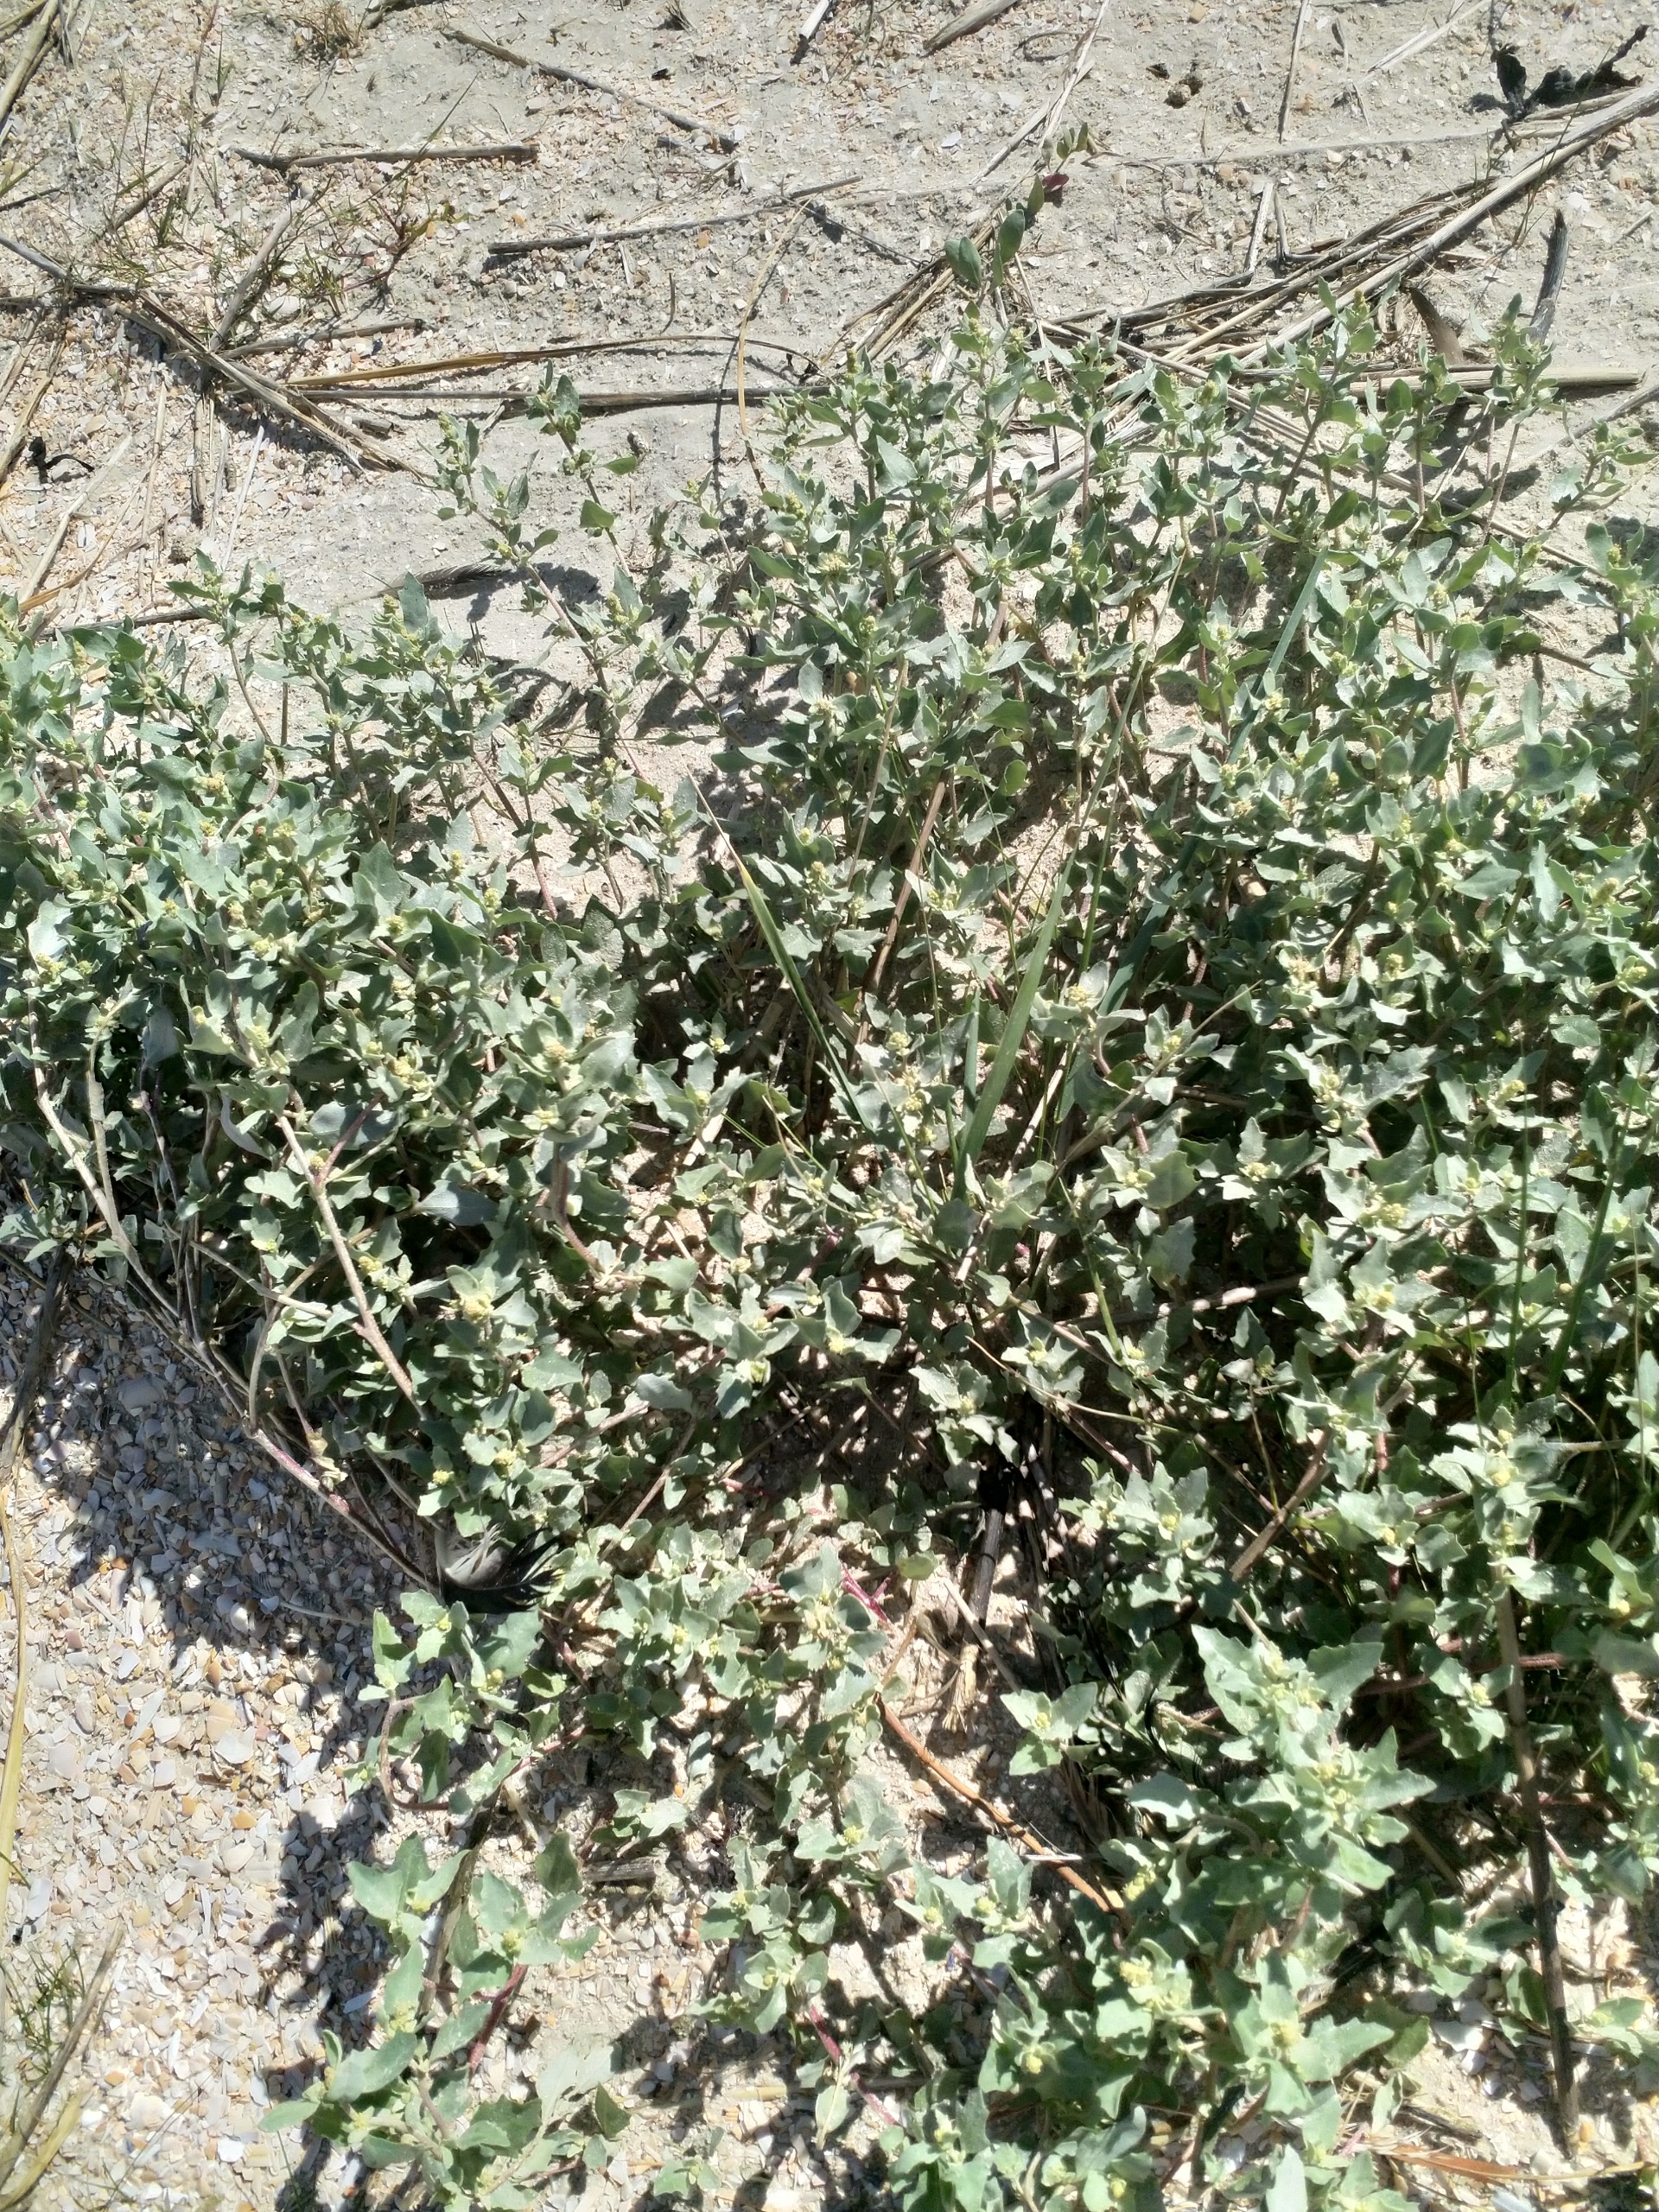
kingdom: Plantae
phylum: Tracheophyta
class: Magnoliopsida
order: Caryophyllales
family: Amaranthaceae
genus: Atriplex
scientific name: Atriplex laciniata
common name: Sølv-mælde
